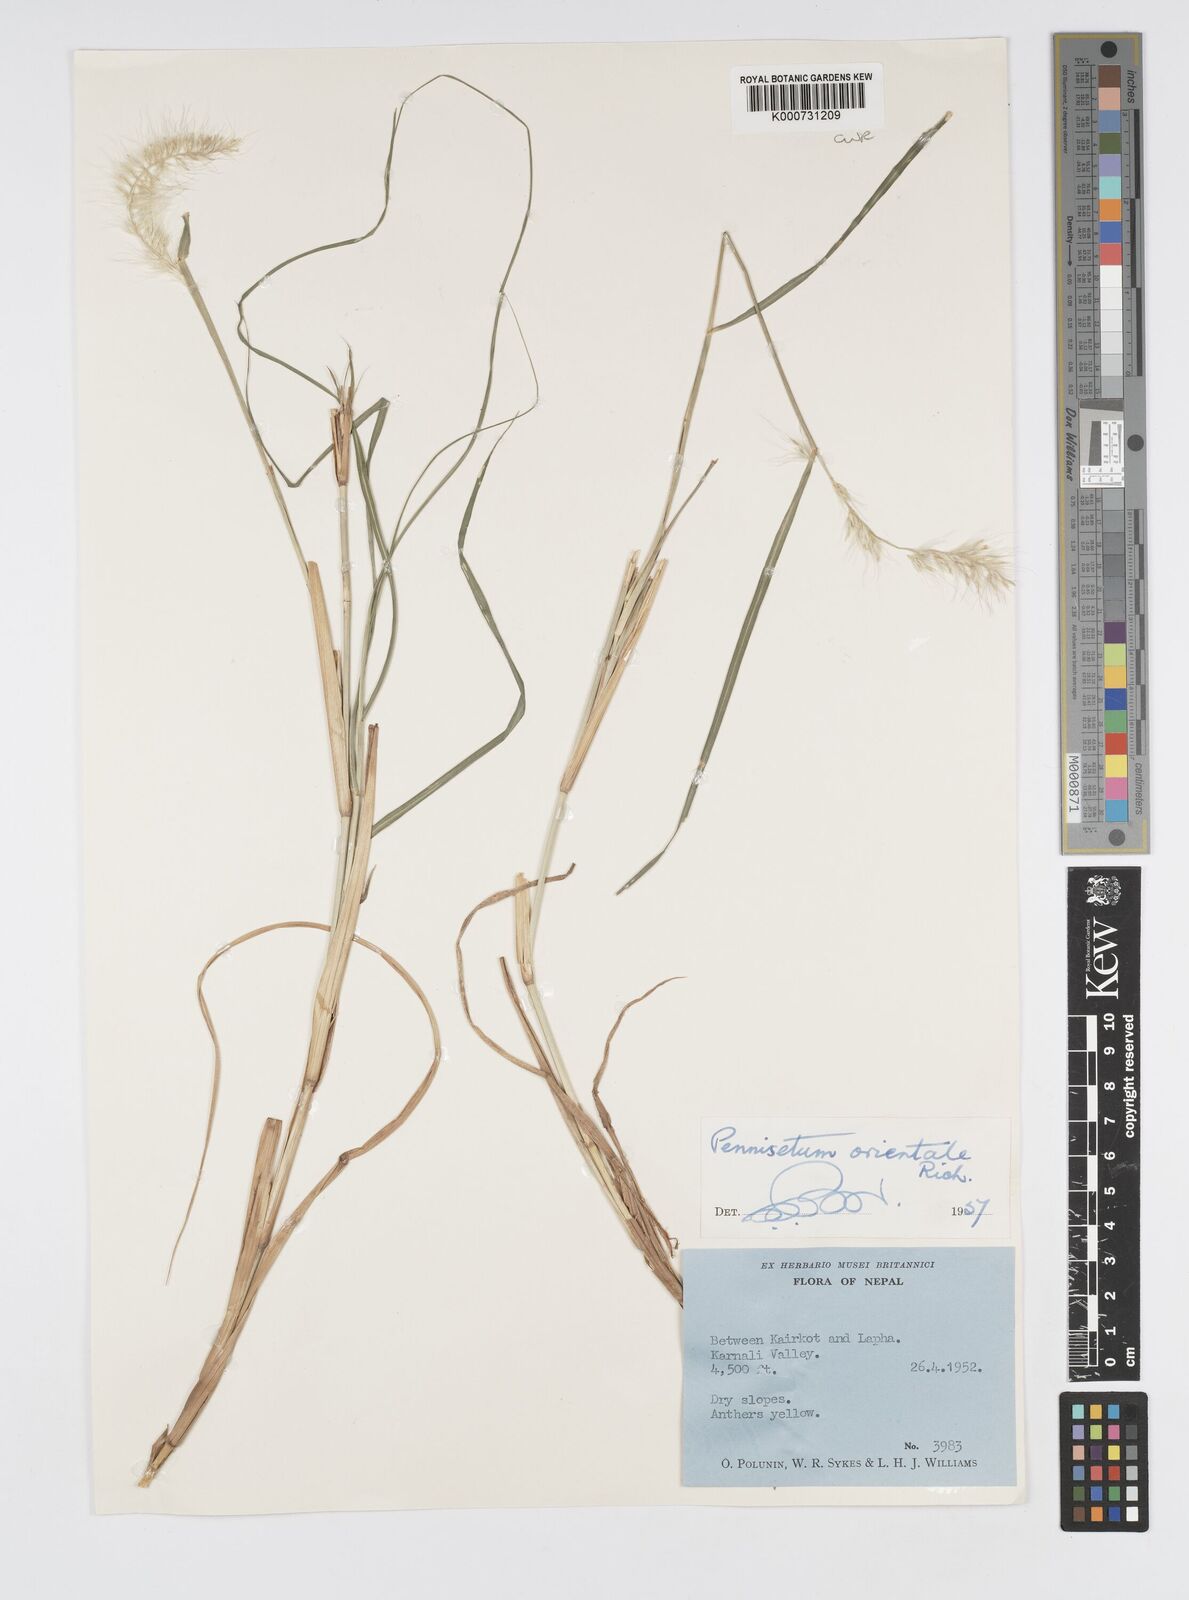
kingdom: Plantae
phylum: Tracheophyta
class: Liliopsida
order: Poales
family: Poaceae
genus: Cenchrus
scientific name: Cenchrus orientalis
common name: Oriental fountain grass
